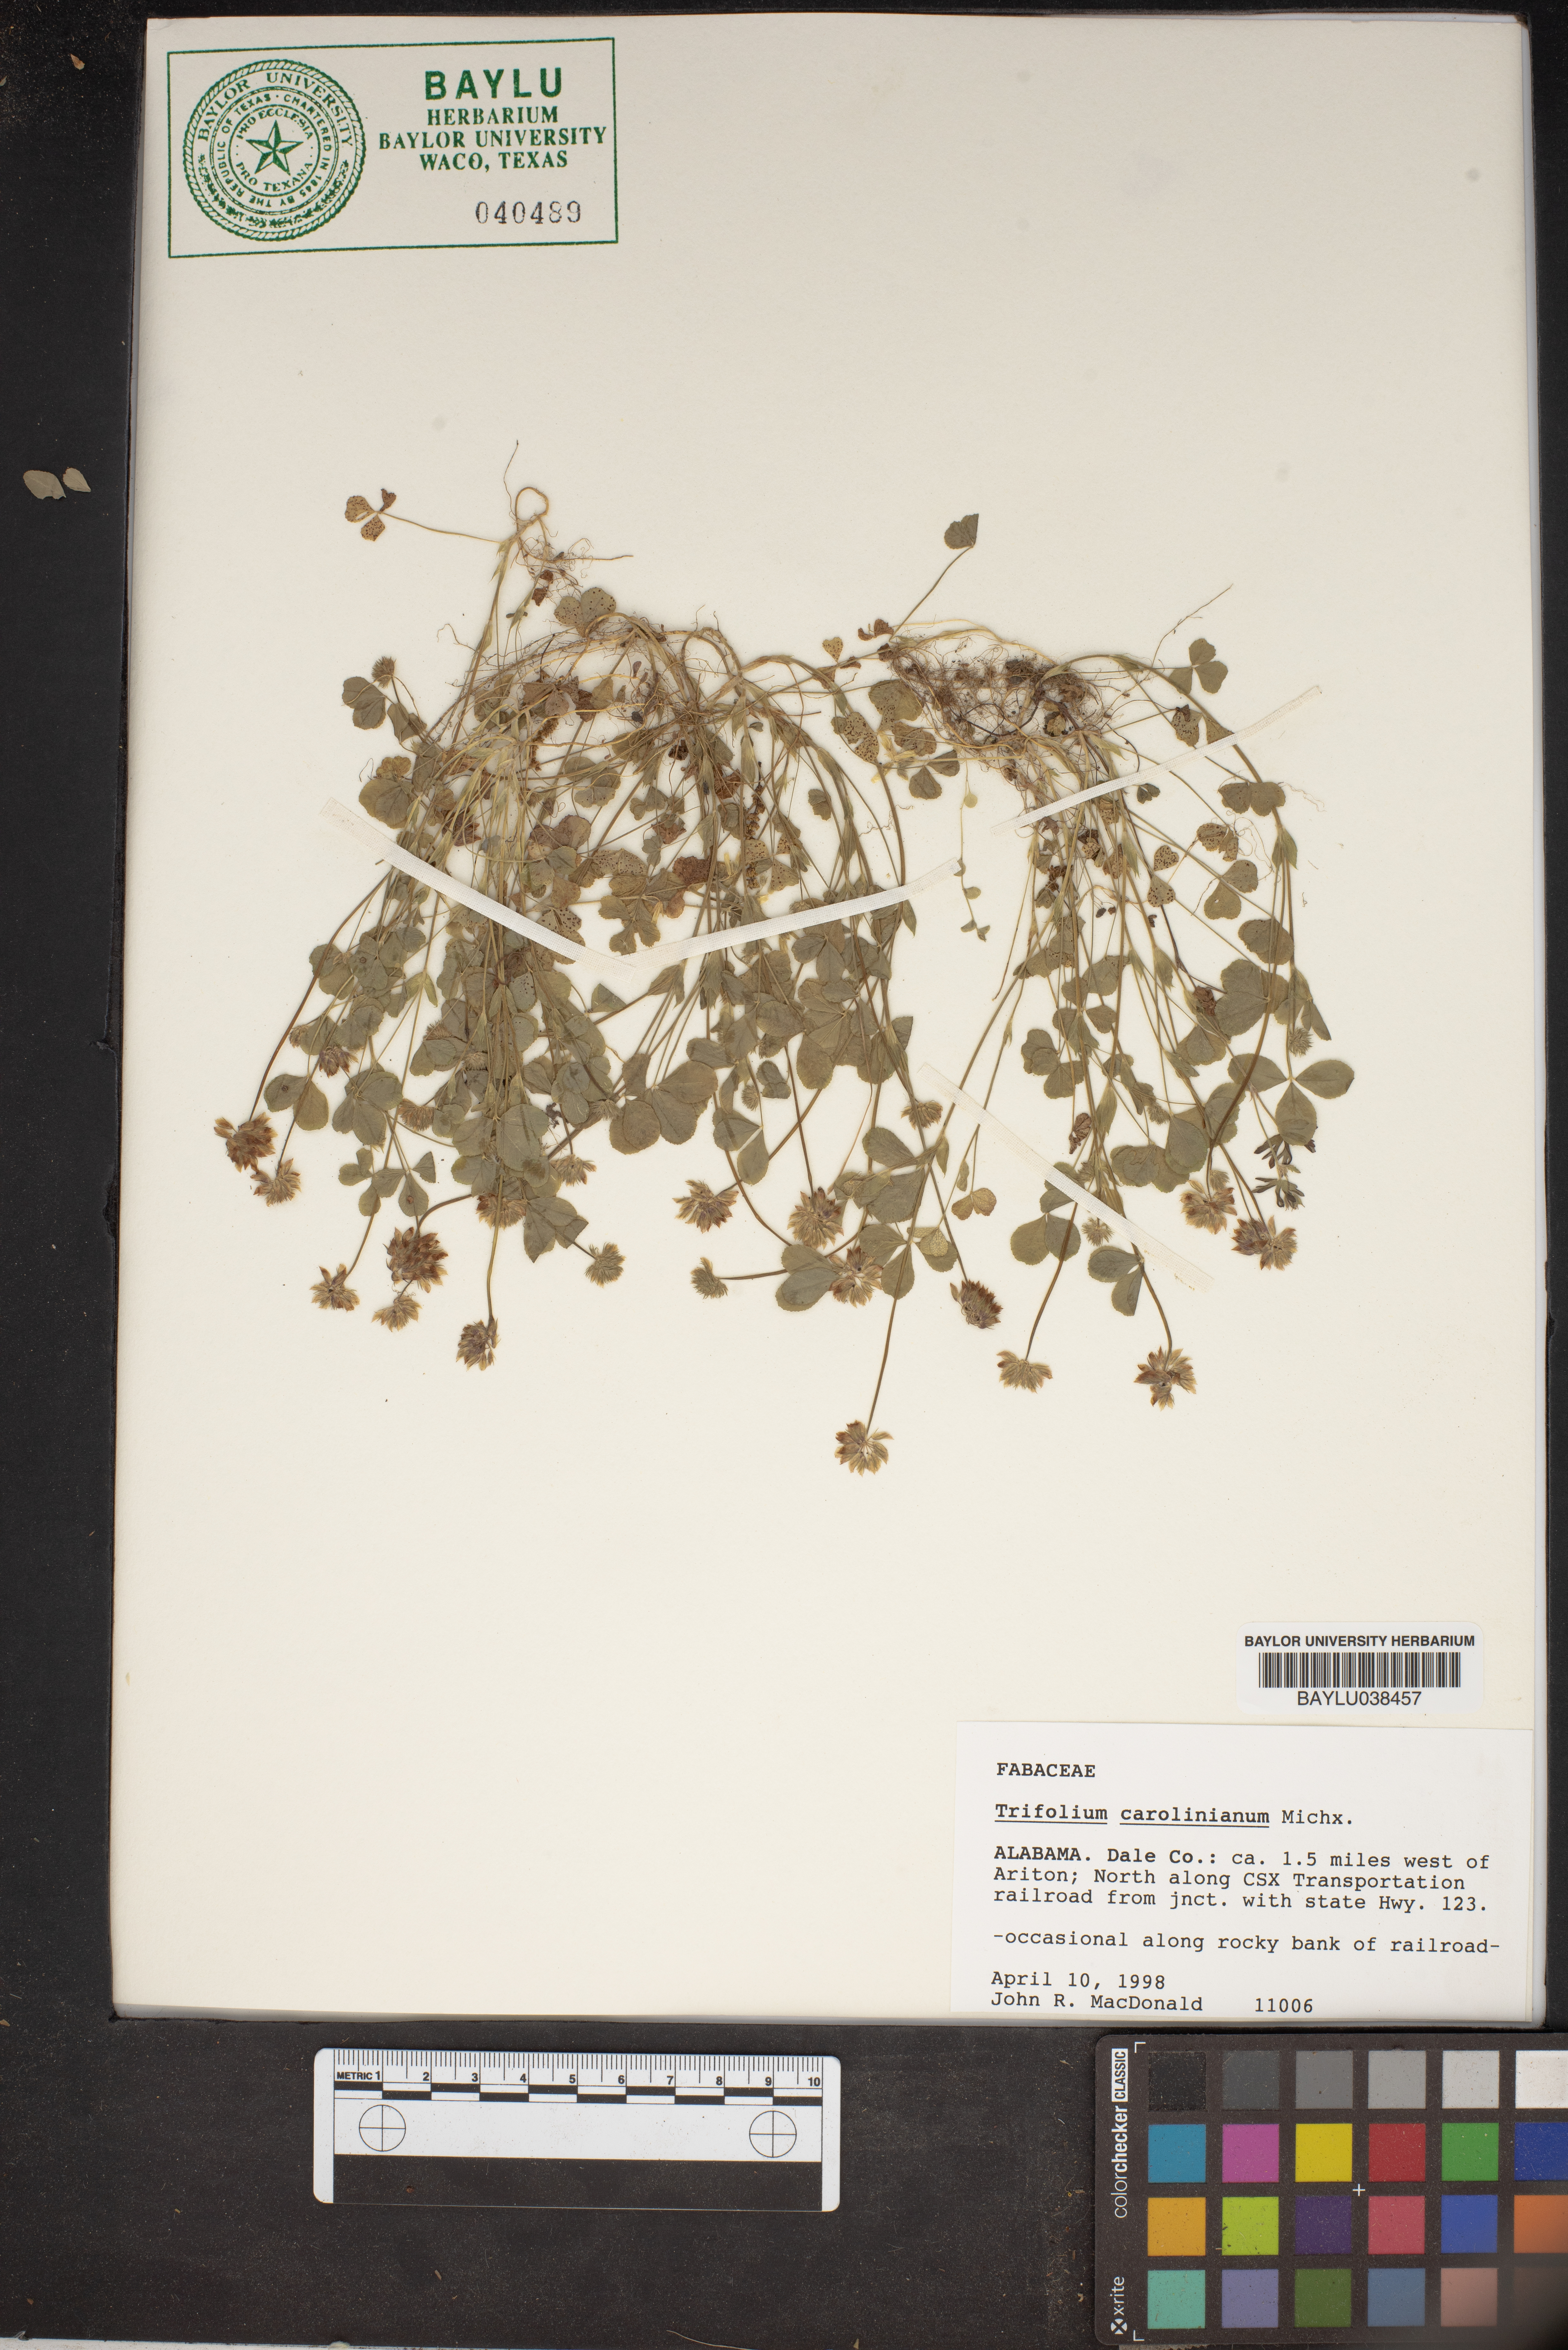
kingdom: Plantae
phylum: Tracheophyta
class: Magnoliopsida
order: Fabales
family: Fabaceae
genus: Trifolium
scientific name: Trifolium carolinianum
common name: Wild white clover
